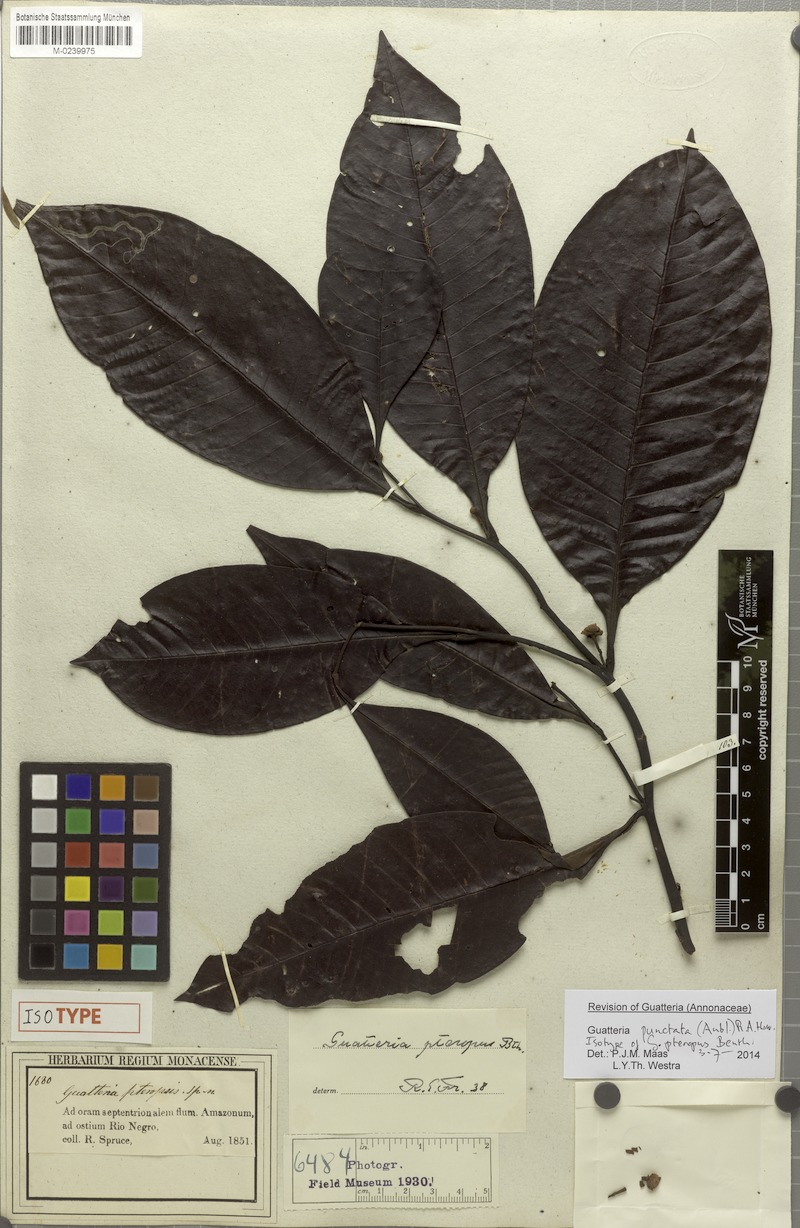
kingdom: Plantae
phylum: Tracheophyta
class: Magnoliopsida
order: Magnoliales
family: Annonaceae
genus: Guatteria
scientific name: Guatteria punctata
